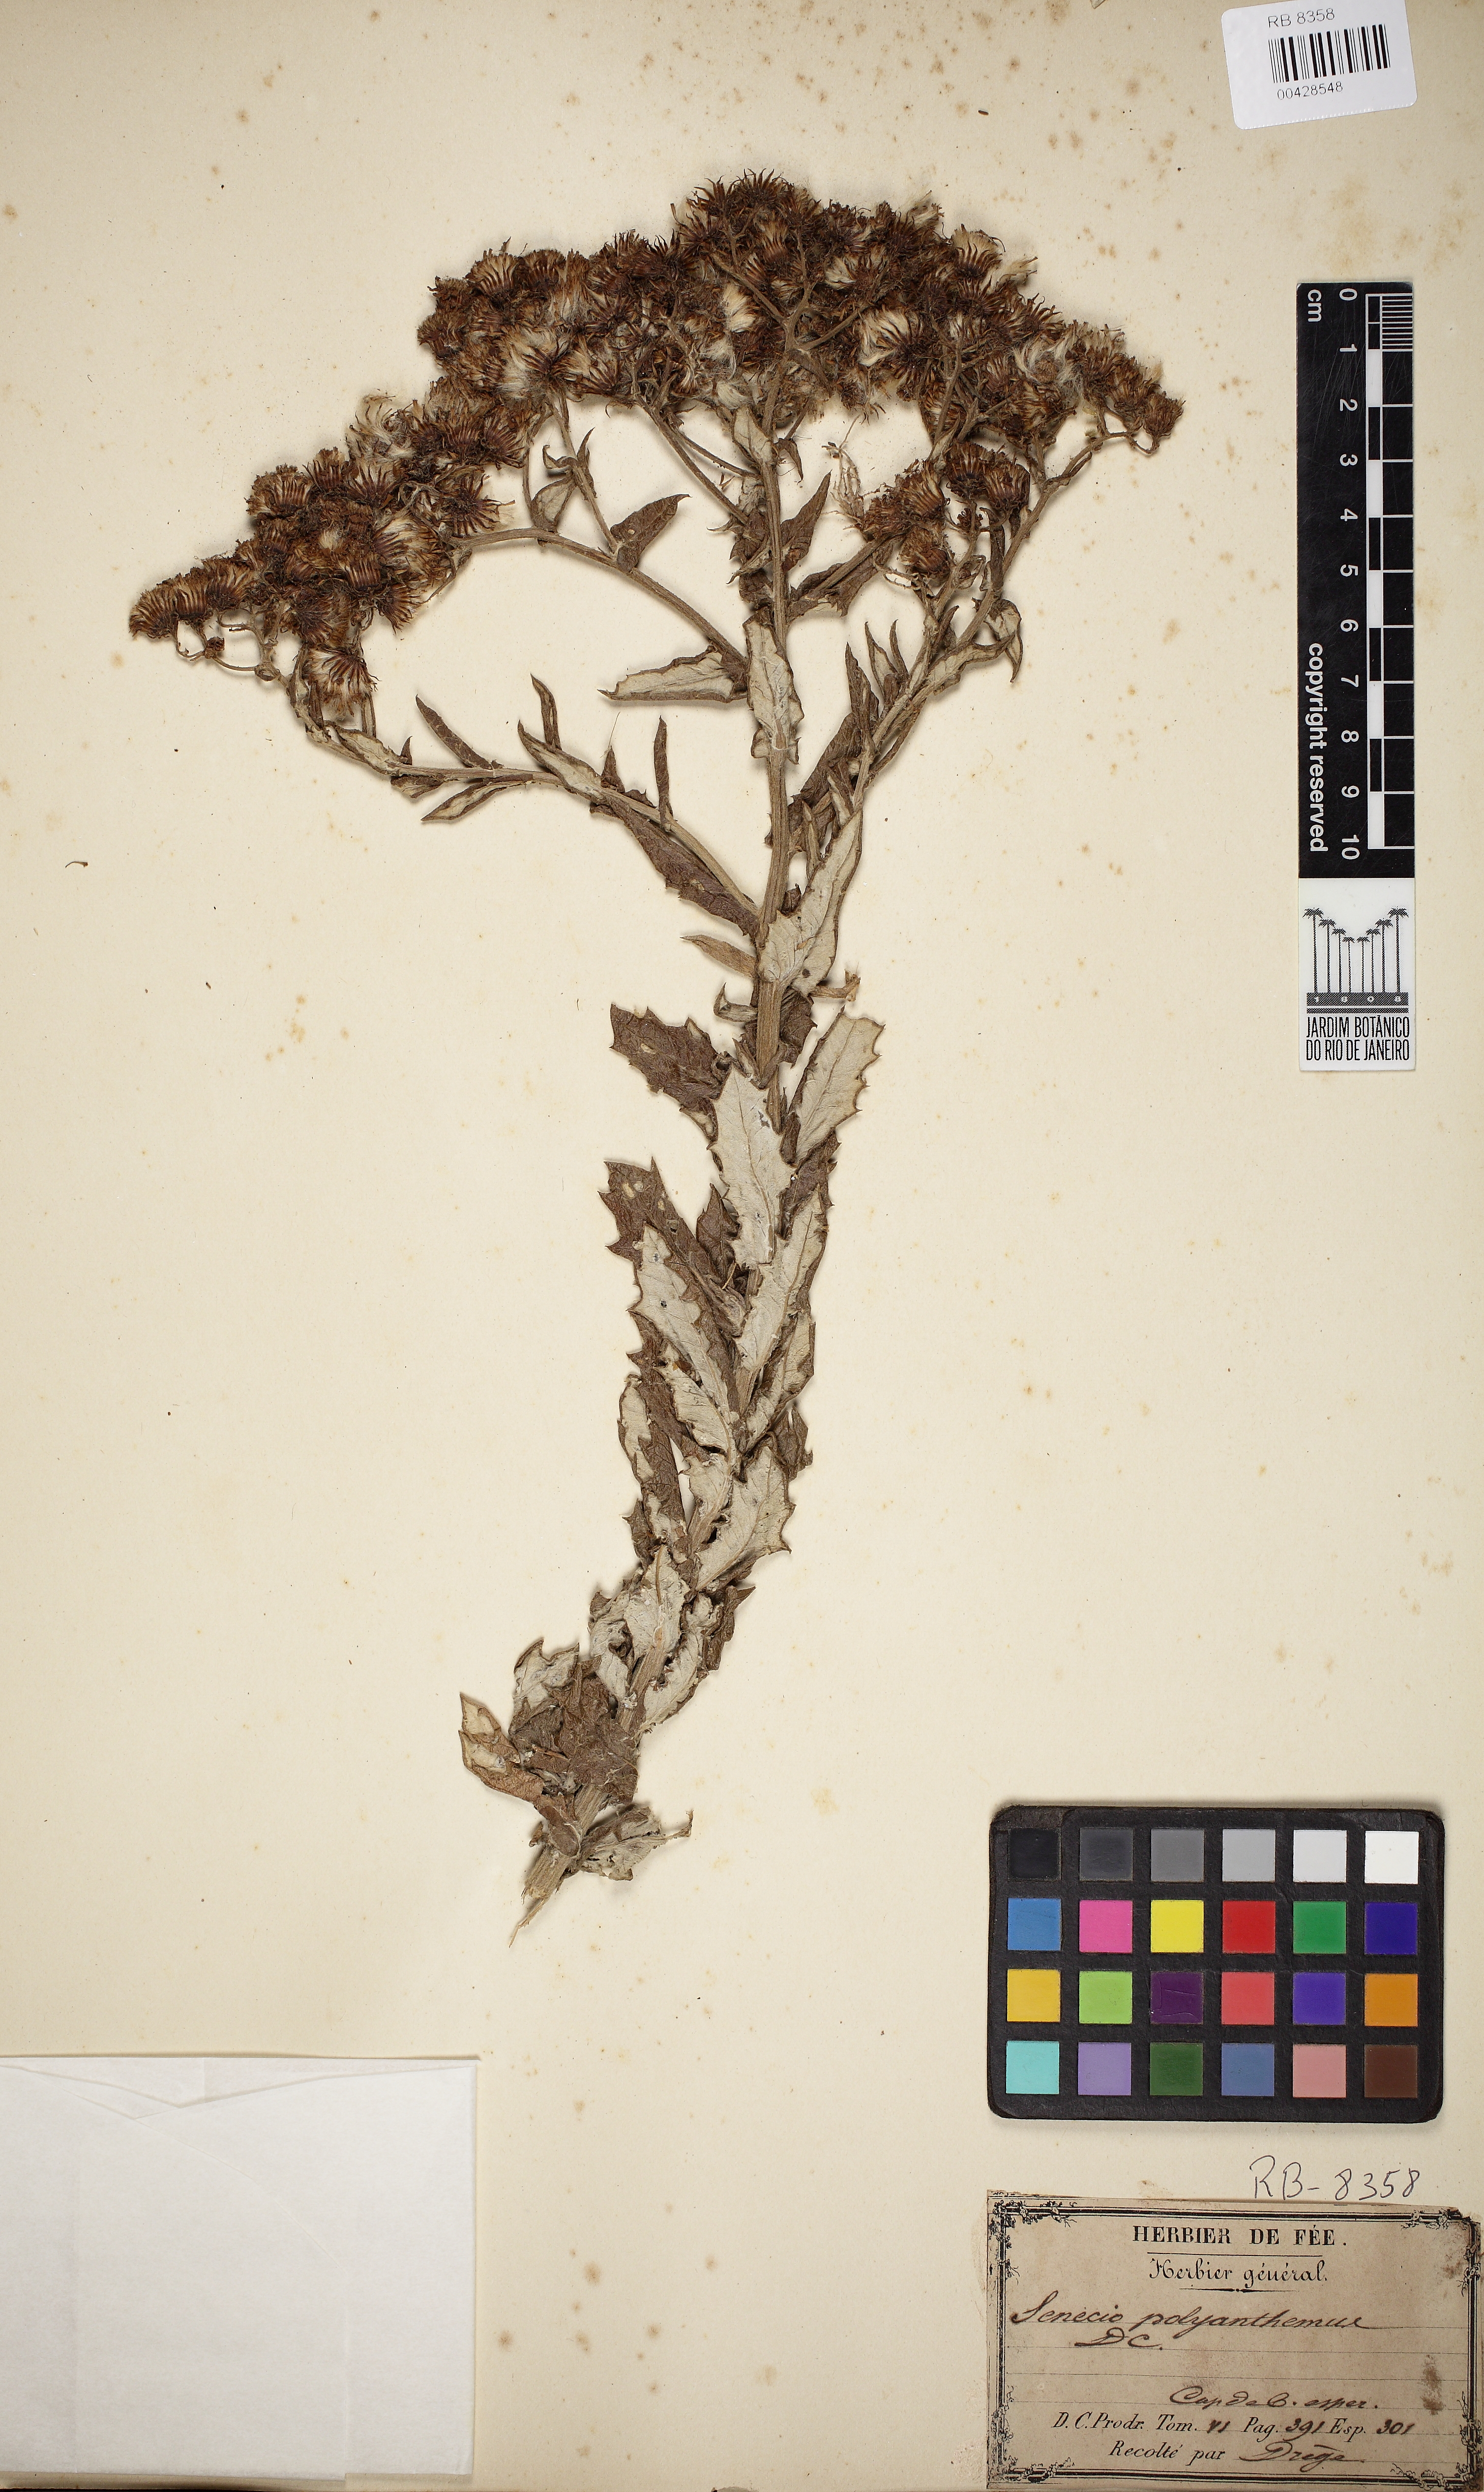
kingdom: Plantae
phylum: Tracheophyta
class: Magnoliopsida
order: Asterales
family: Asteraceae
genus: Senecio
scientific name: Senecio juniperinus
